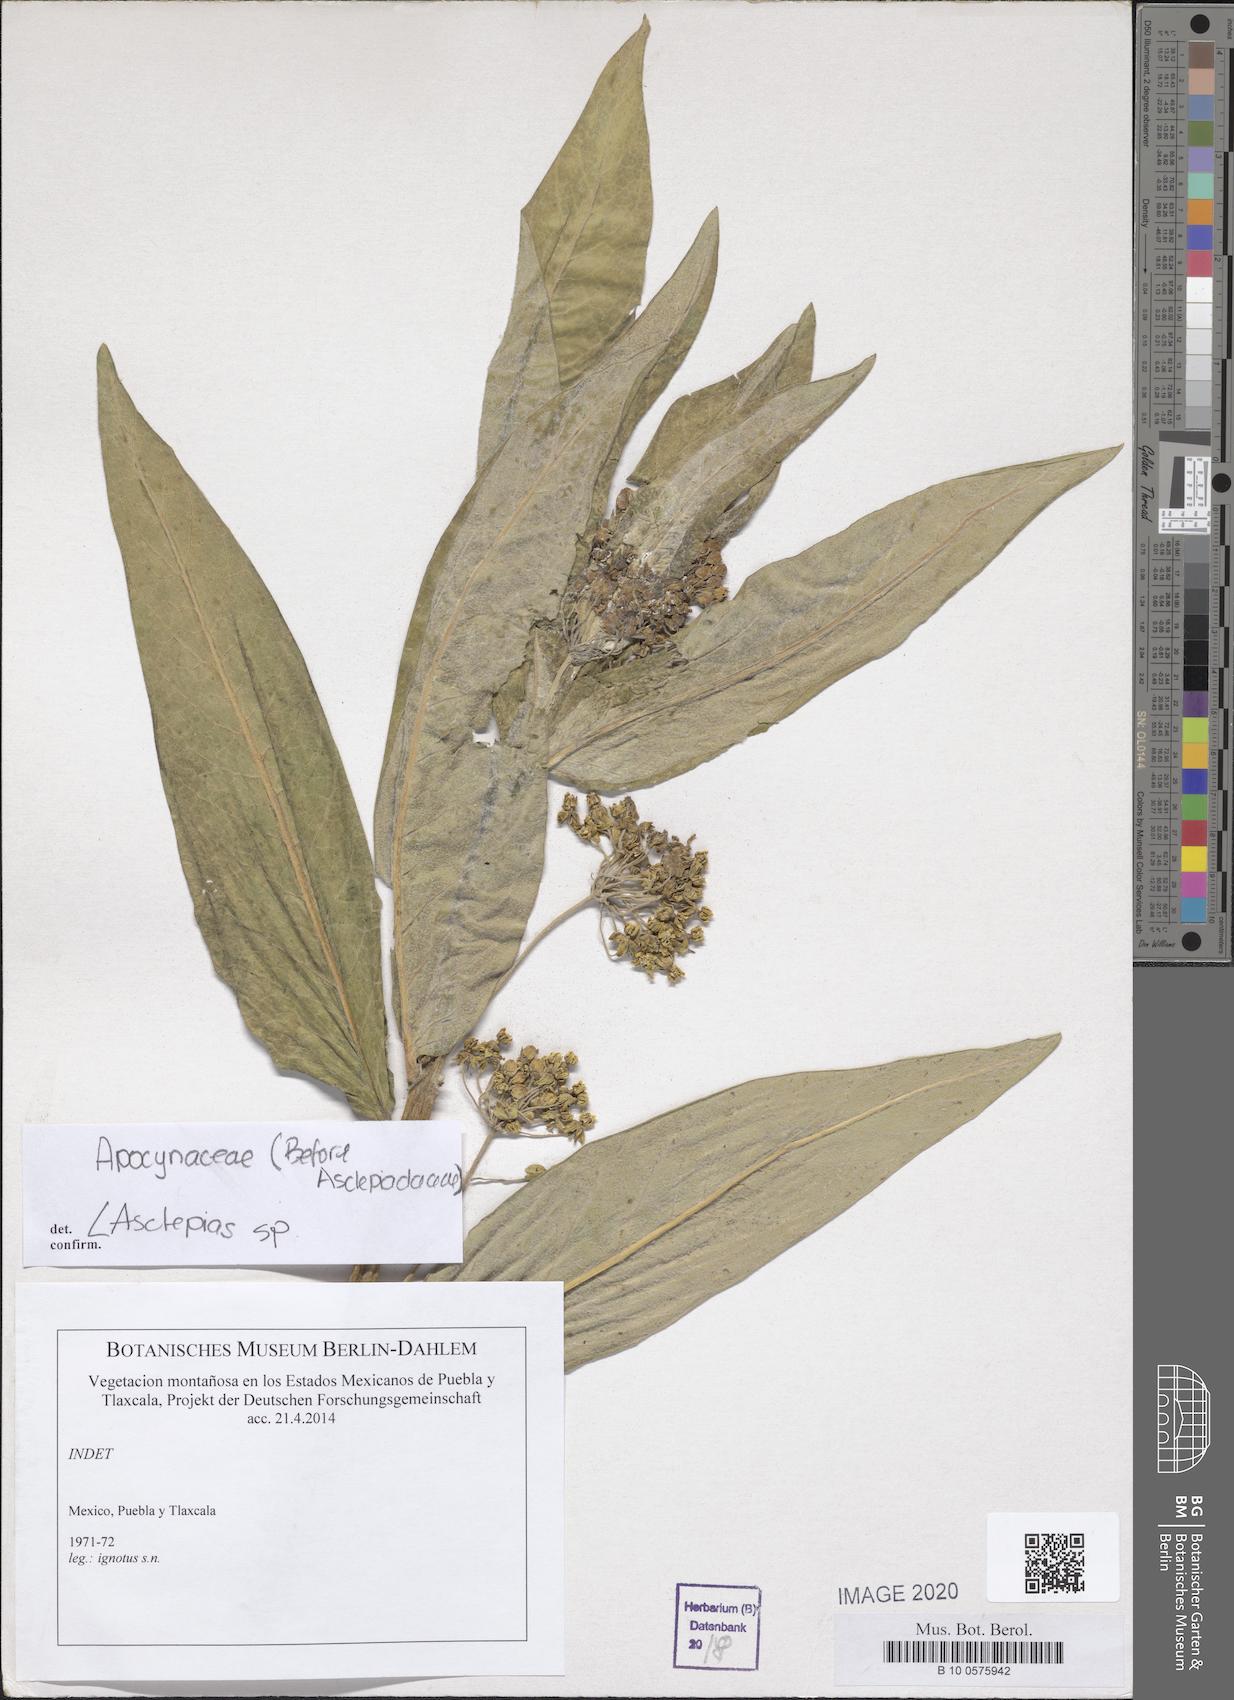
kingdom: Plantae
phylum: Tracheophyta
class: Magnoliopsida
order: Gentianales
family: Apocynaceae
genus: Asclepias
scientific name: Asclepias
